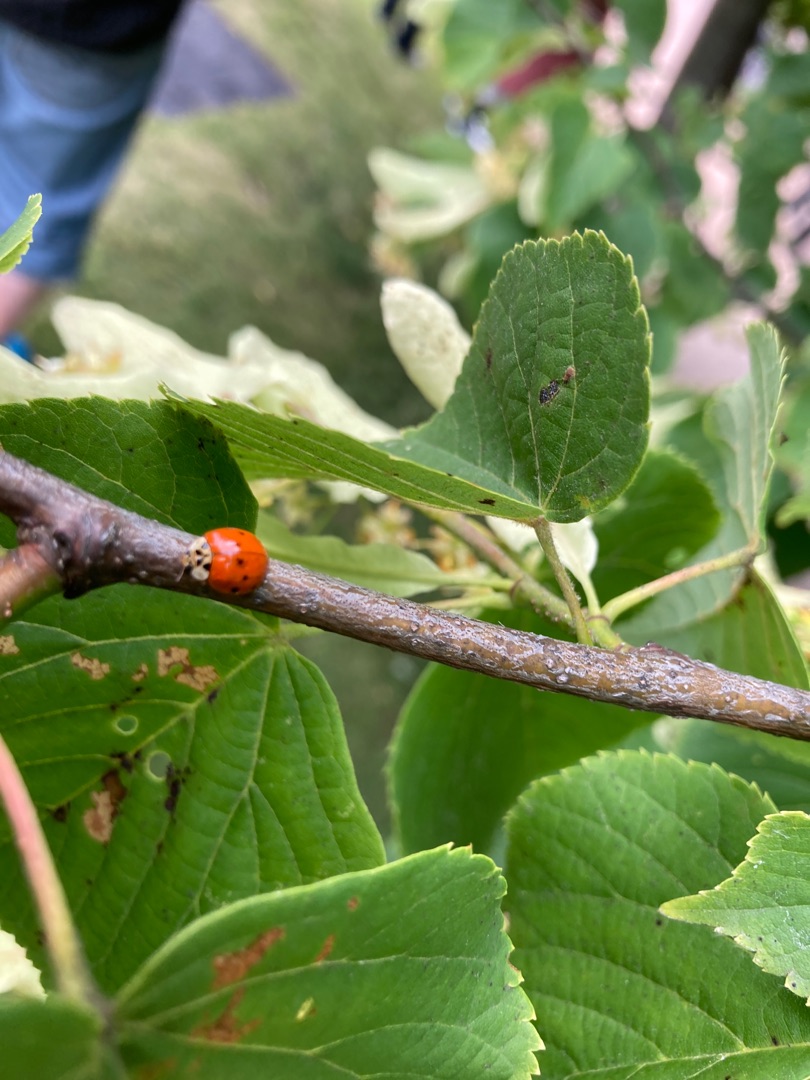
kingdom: Animalia
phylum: Arthropoda
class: Insecta
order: Coleoptera
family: Coccinellidae
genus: Harmonia
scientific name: Harmonia axyridis
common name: Harlekinmariehøne
